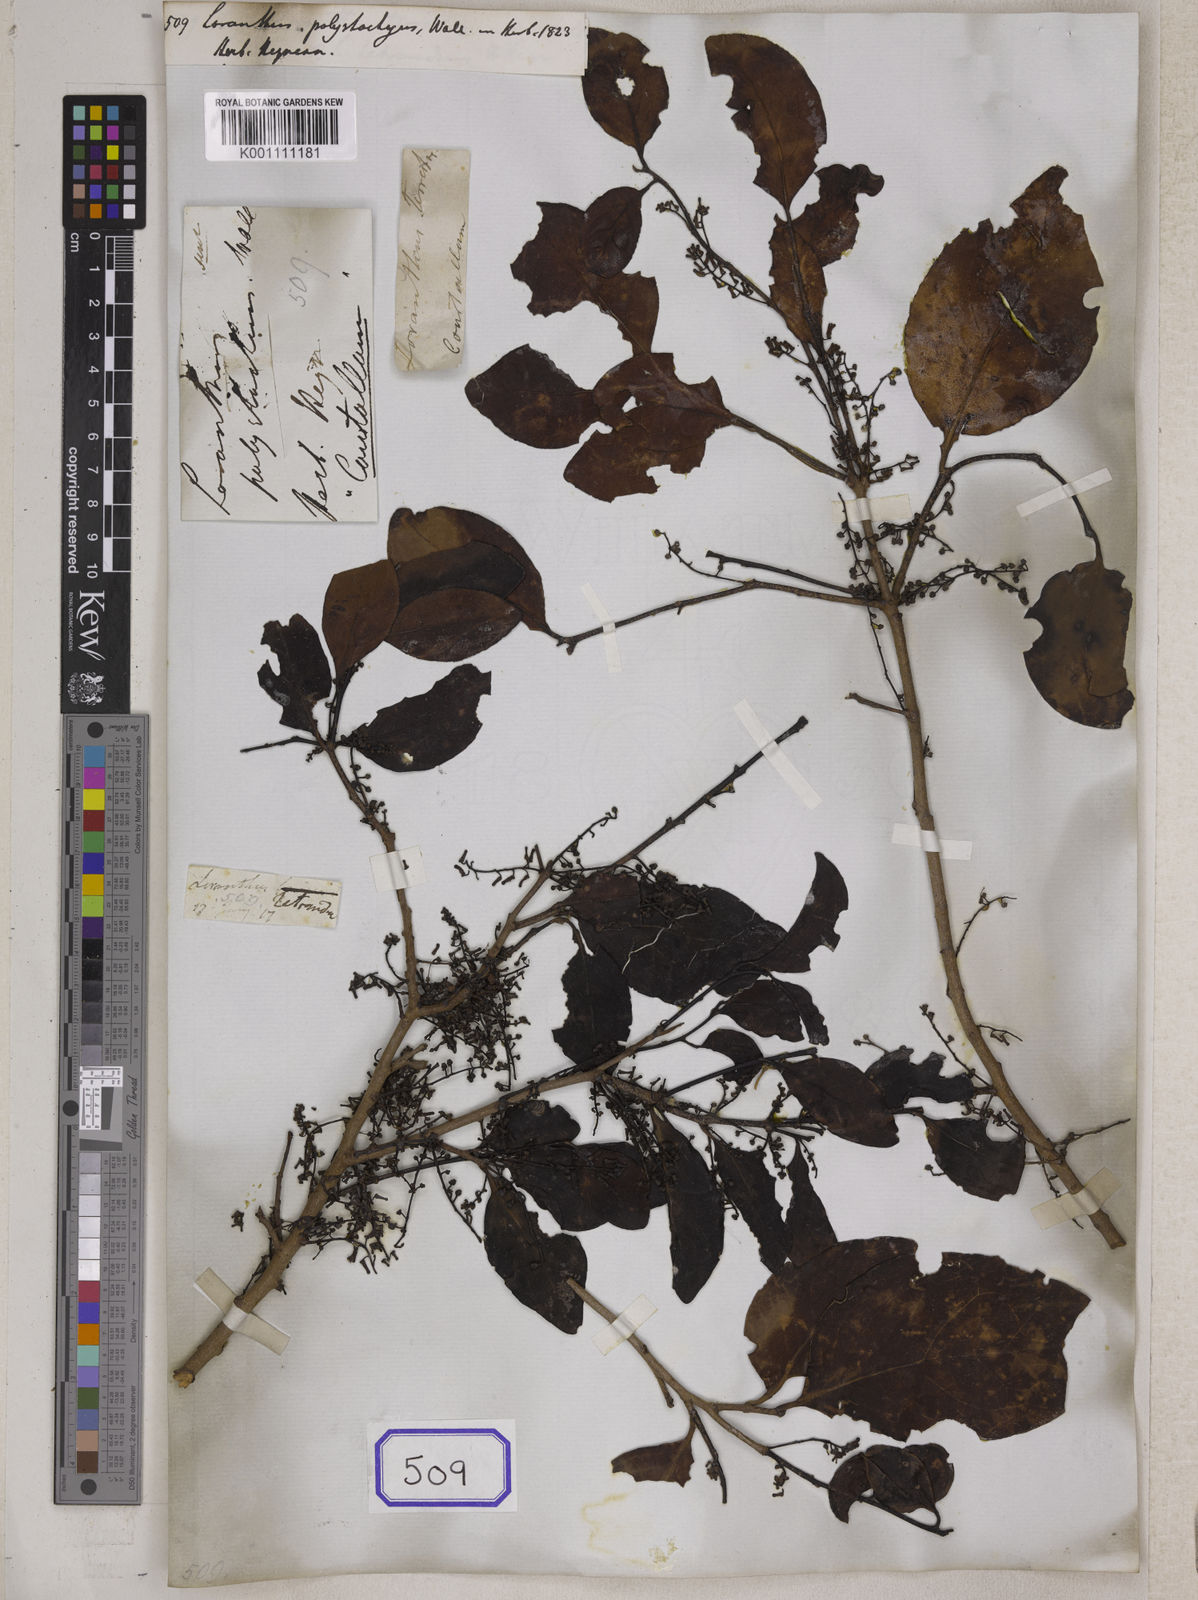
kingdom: Plantae
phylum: Tracheophyta
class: Magnoliopsida
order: Santalales
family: Loranthaceae
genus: Loranthus
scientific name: Loranthus
